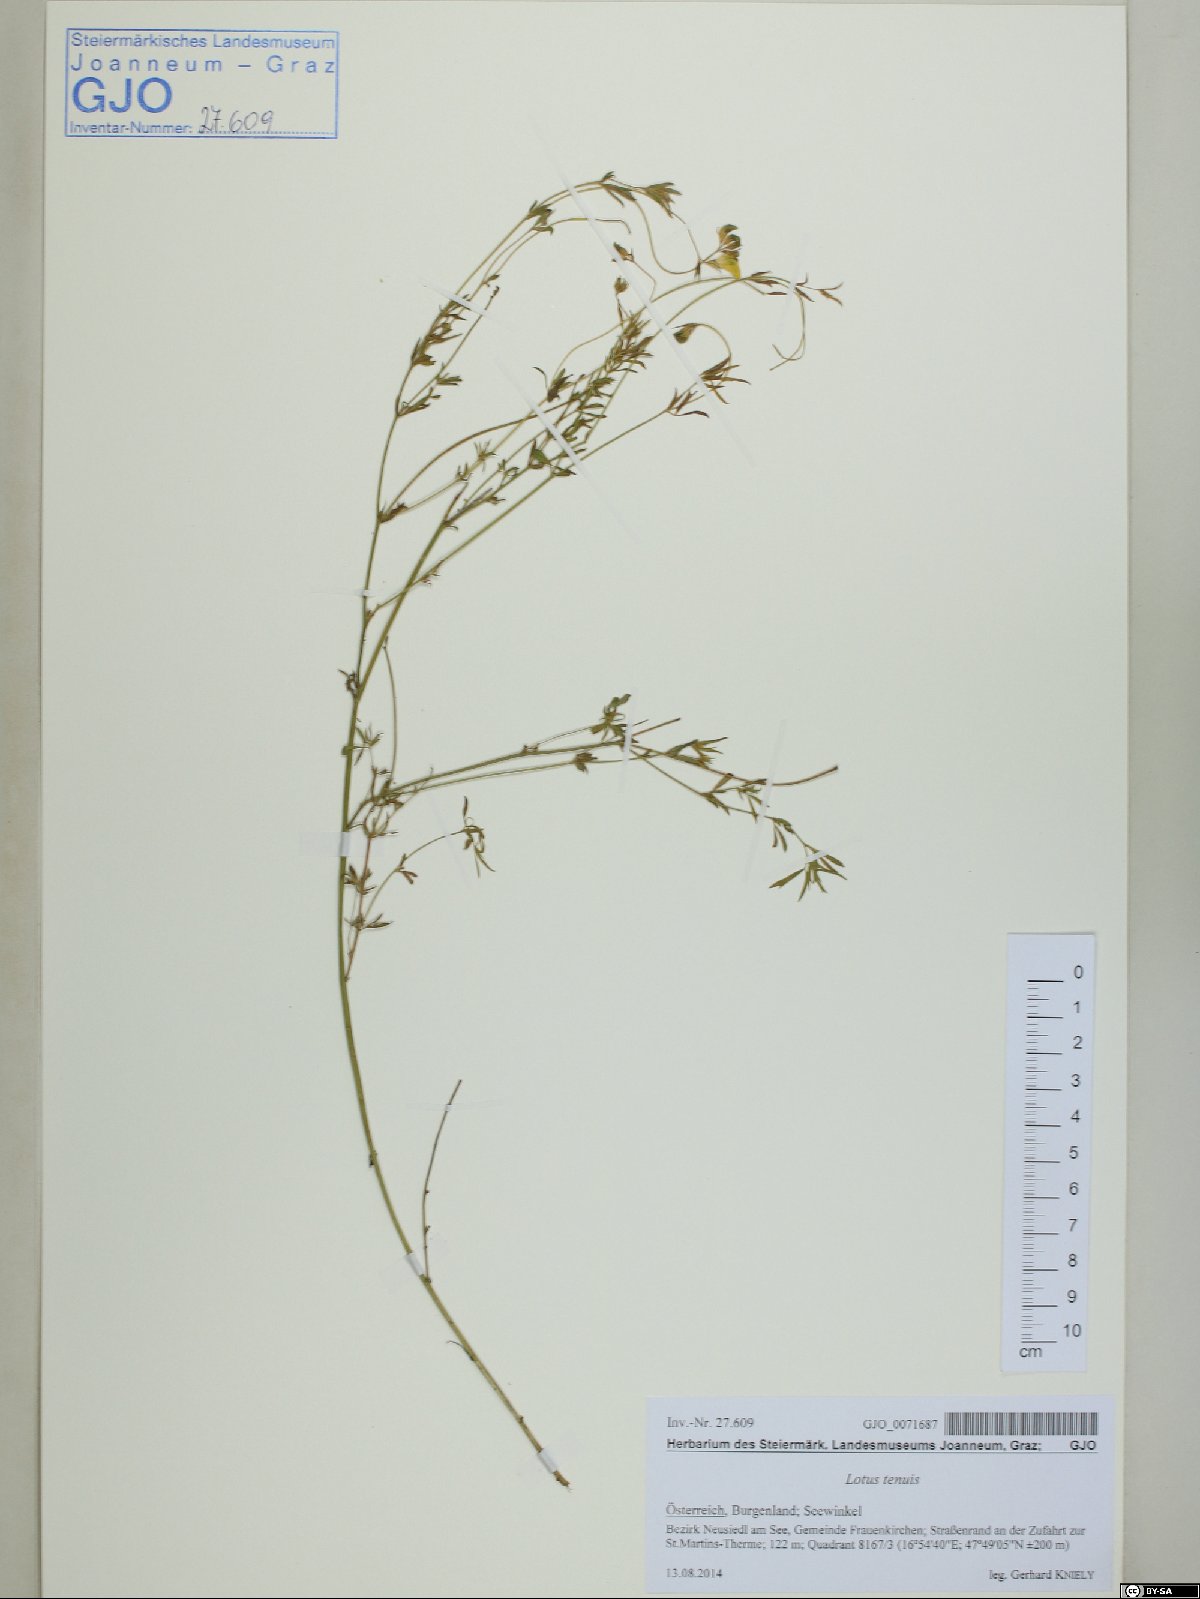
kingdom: Plantae
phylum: Tracheophyta
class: Magnoliopsida
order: Fabales
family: Fabaceae
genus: Lotus
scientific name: Lotus tenuis
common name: Narrow-leaved bird's-foot-trefoil
